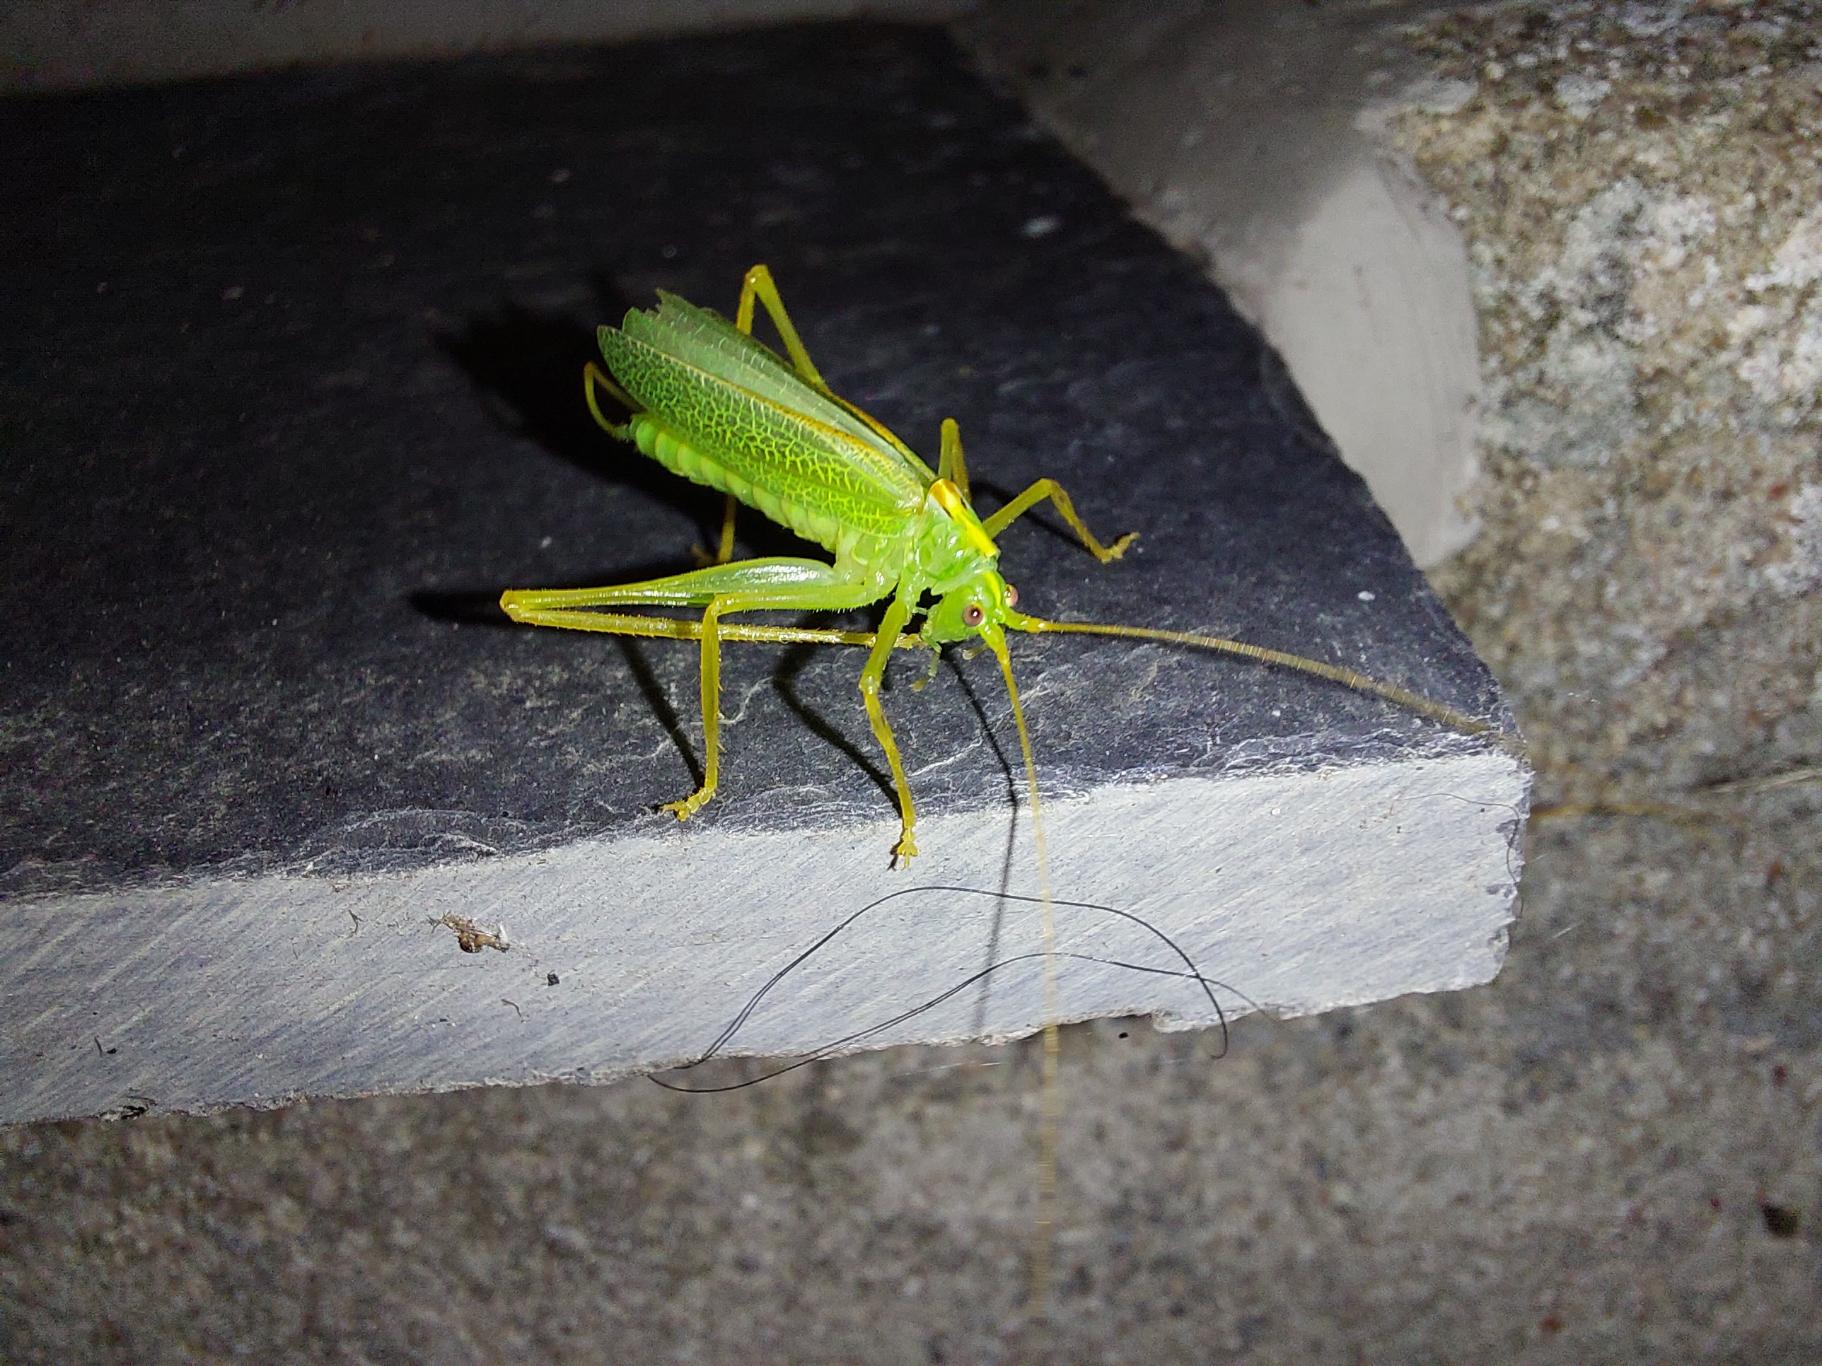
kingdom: Animalia
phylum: Arthropoda
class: Insecta
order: Orthoptera
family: Tettigoniidae
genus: Meconema
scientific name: Meconema thalassinum
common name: Egegræshoppe
